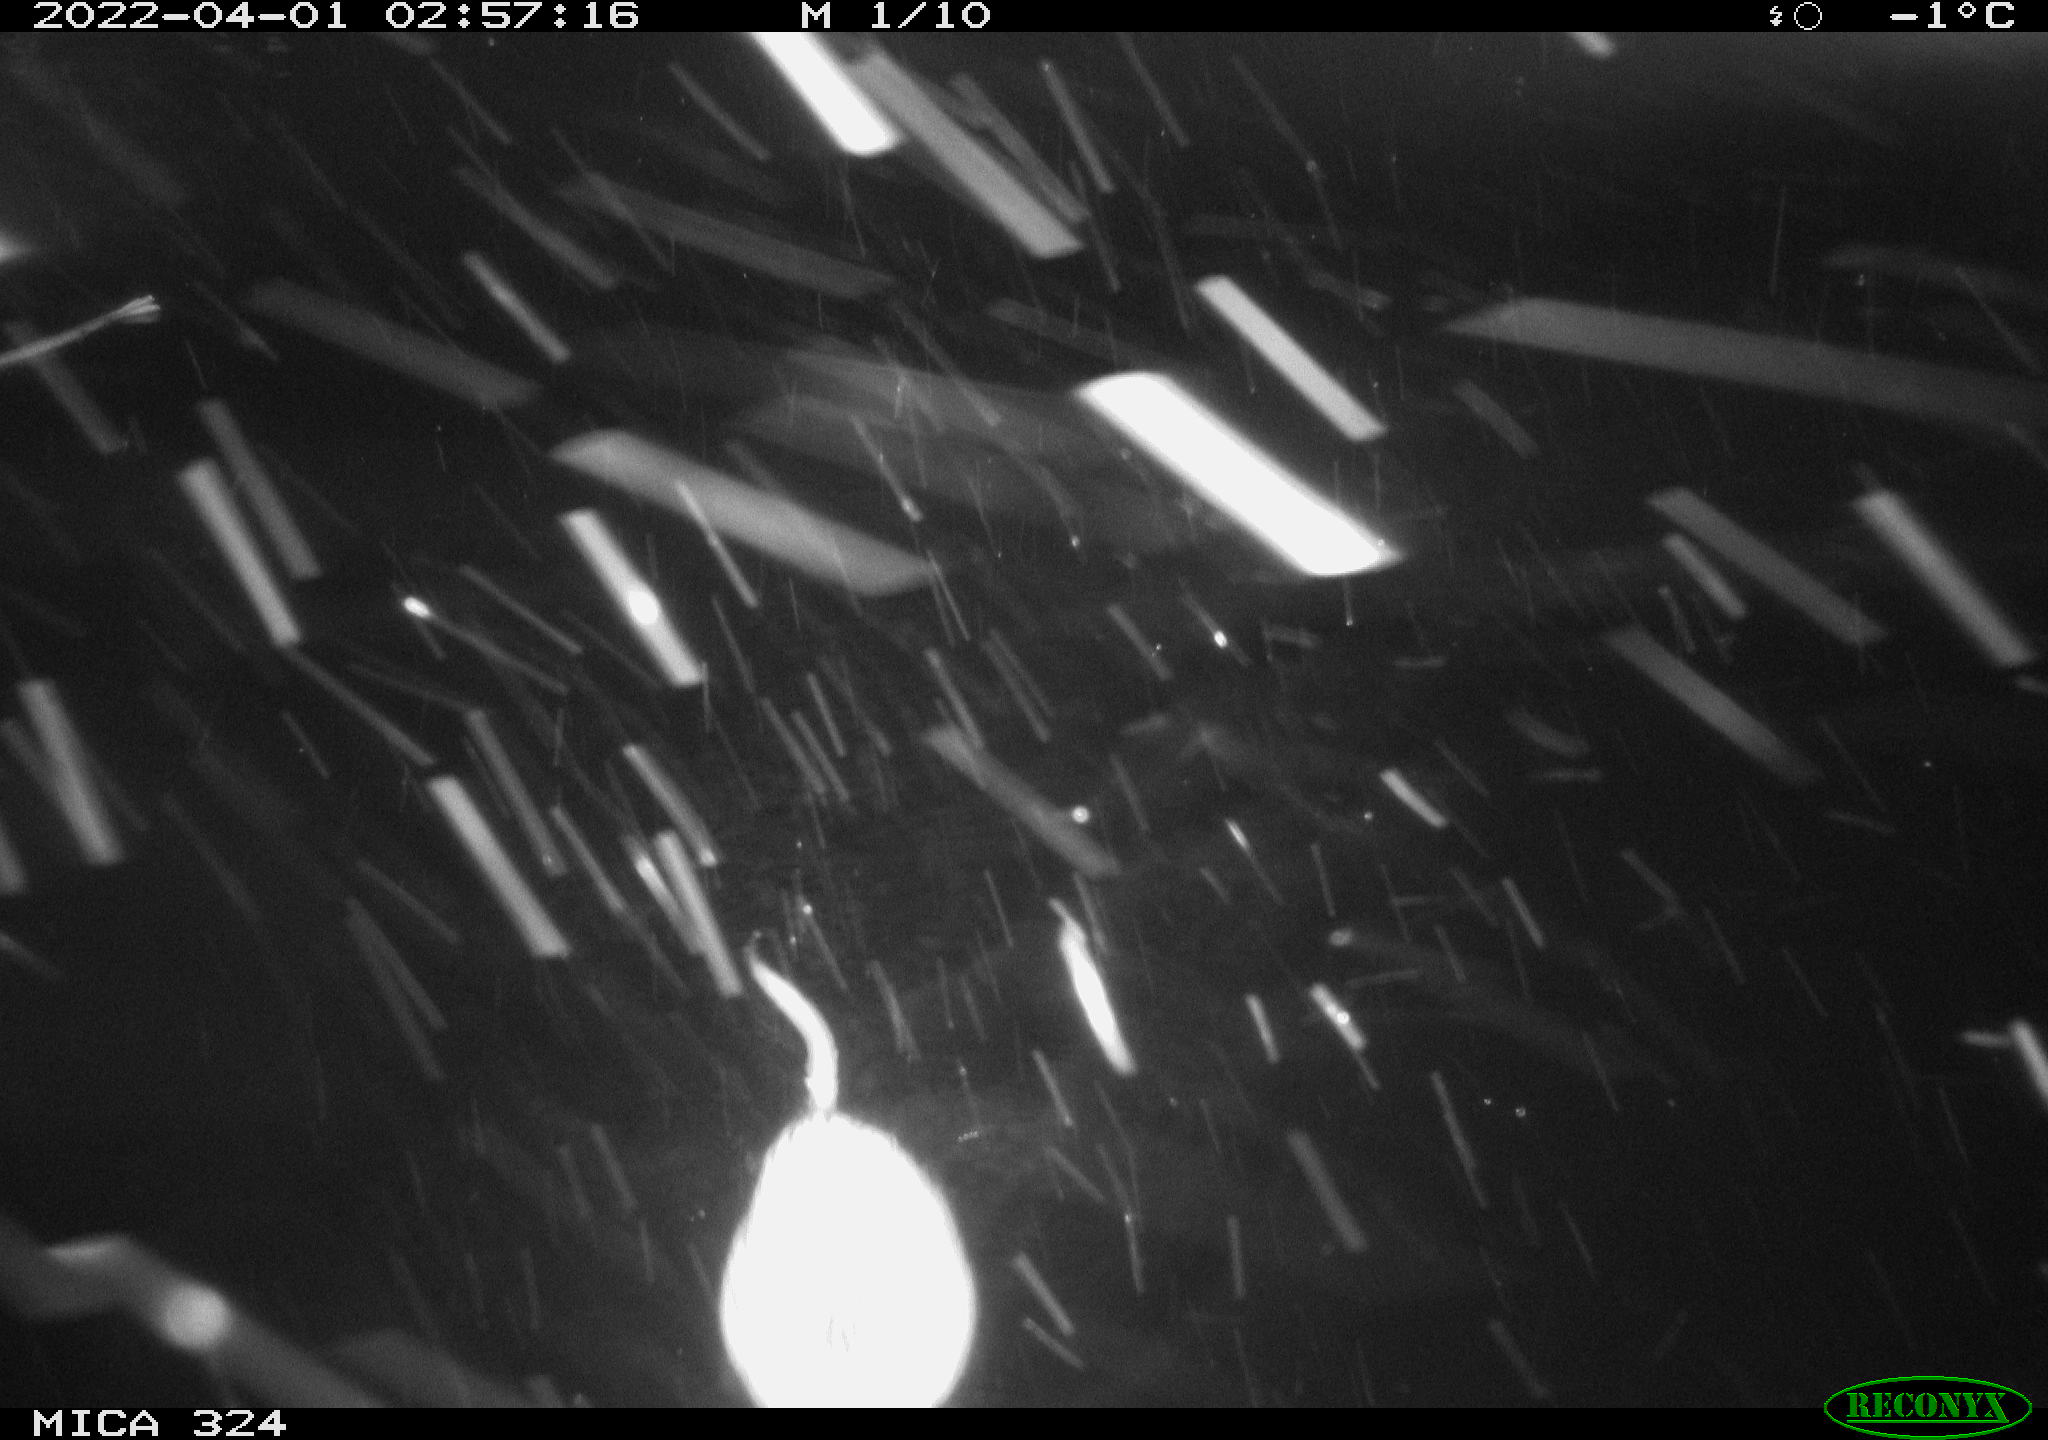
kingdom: Animalia
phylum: Chordata
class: Mammalia
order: Rodentia
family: Cricetidae
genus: Ondatra
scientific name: Ondatra zibethicus
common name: Muskrat
